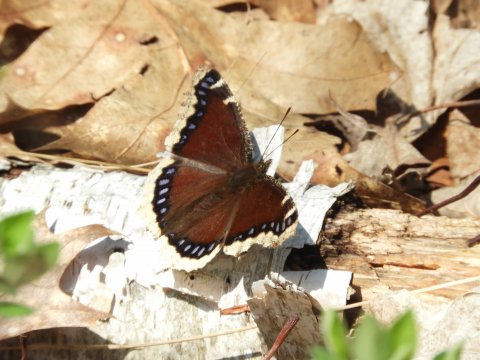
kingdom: Animalia
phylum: Arthropoda
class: Insecta
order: Lepidoptera
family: Nymphalidae
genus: Nymphalis
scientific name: Nymphalis antiopa
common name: Mourning Cloak
